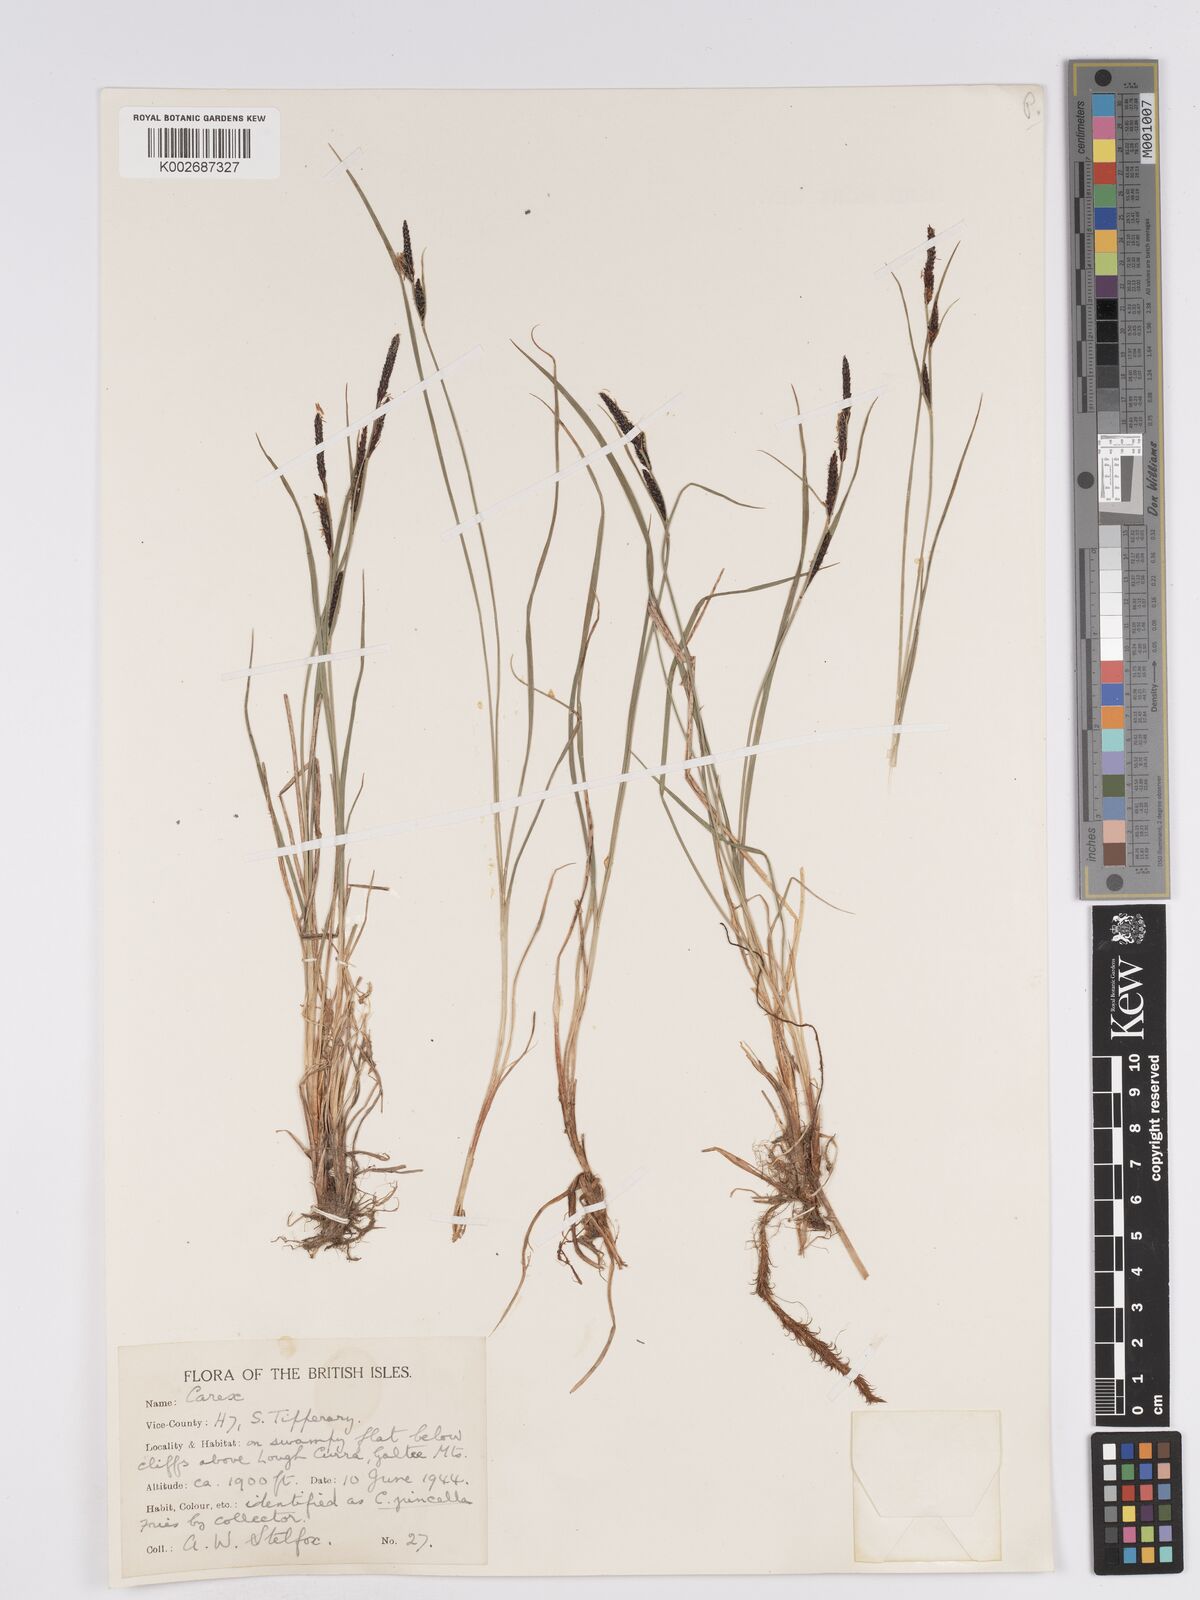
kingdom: Plantae
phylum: Tracheophyta
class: Liliopsida
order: Poales
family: Cyperaceae
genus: Carex
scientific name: Carex nigra
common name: Common sedge
